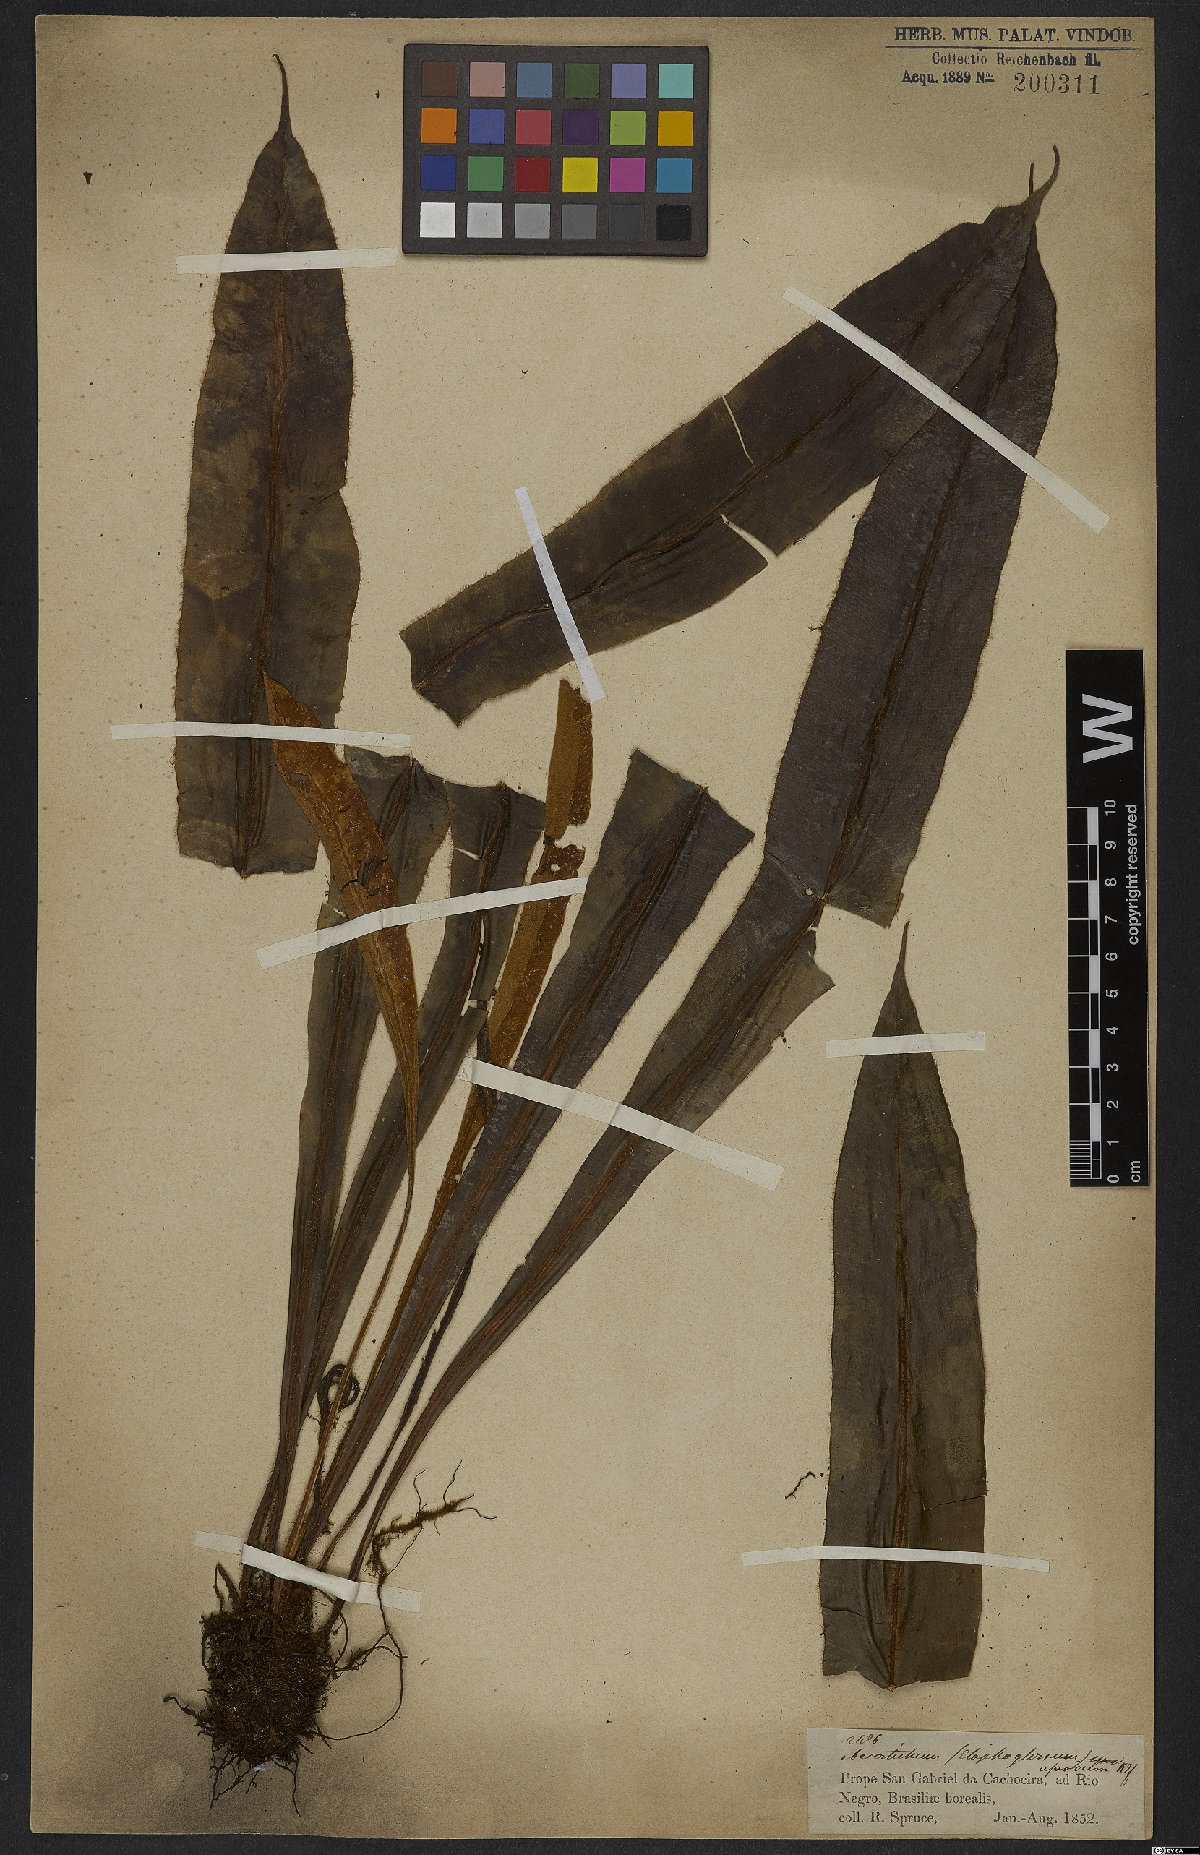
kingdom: Plantae
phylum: Tracheophyta
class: Polypodiopsida
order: Polypodiales
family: Dryopteridaceae
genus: Elaphoglossum
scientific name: Elaphoglossum apodum
